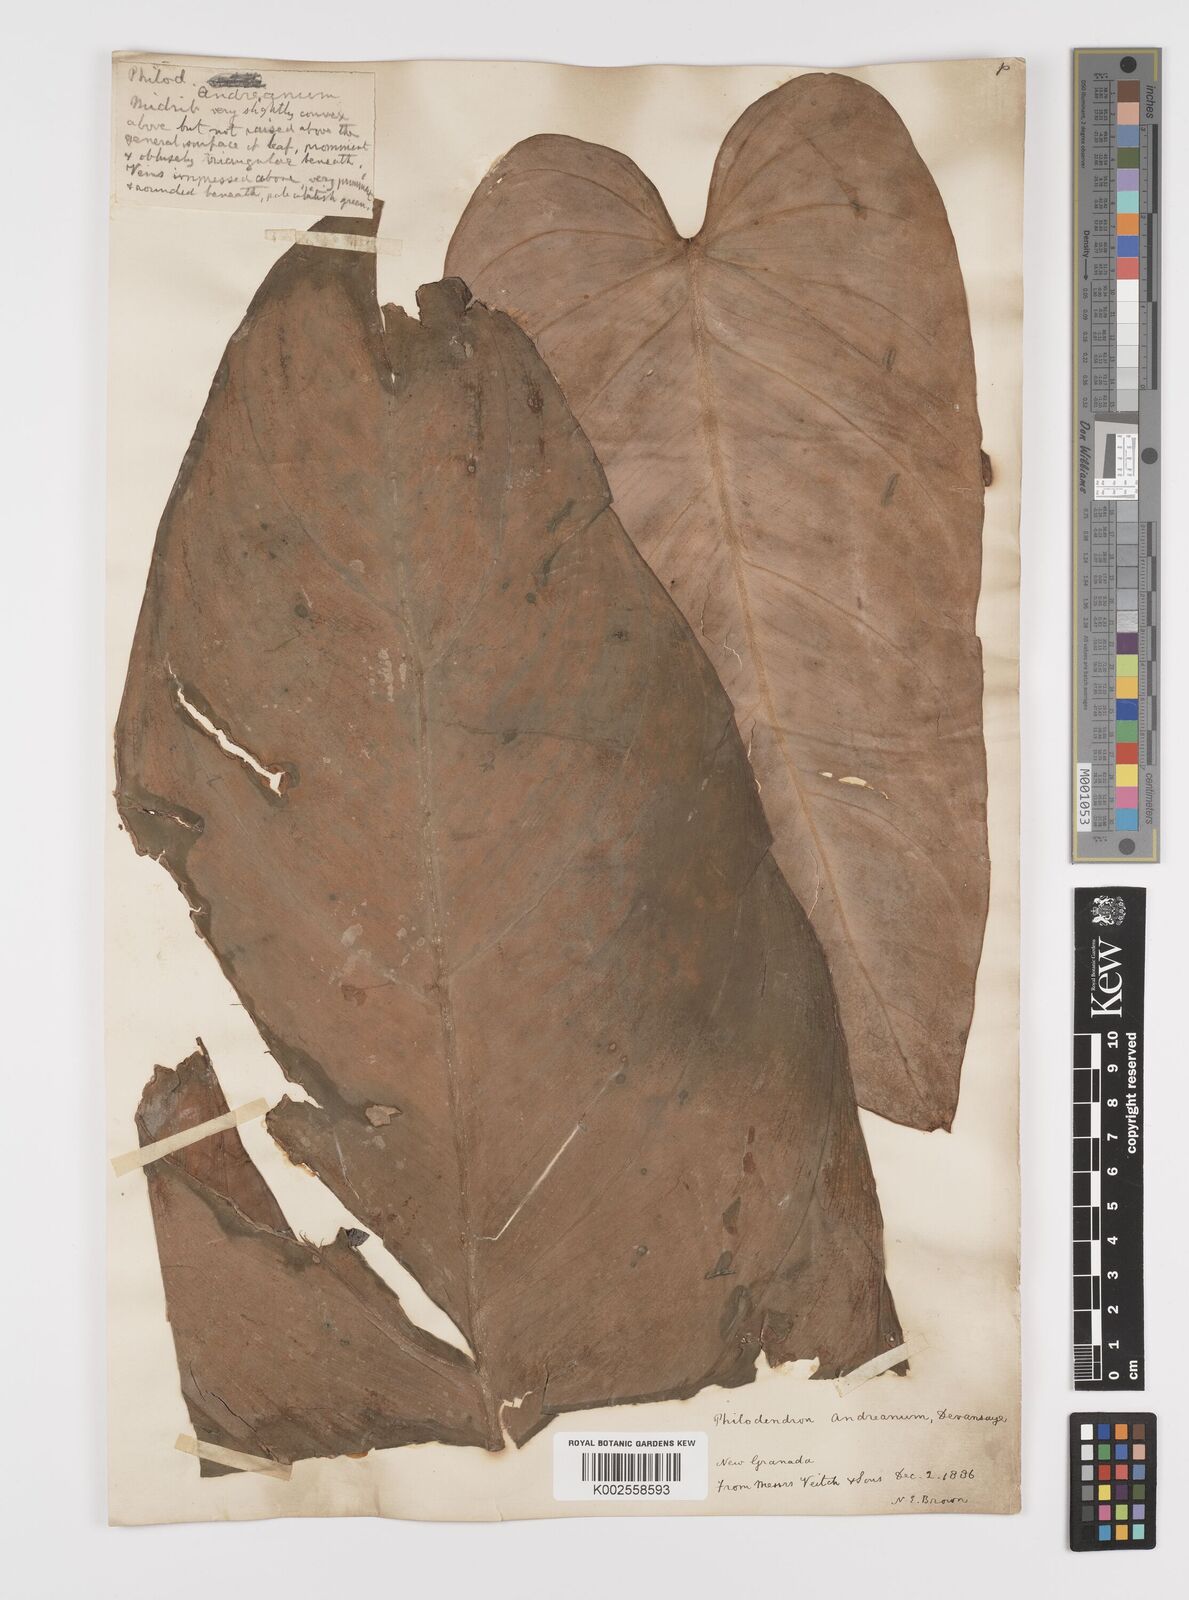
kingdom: Plantae
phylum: Tracheophyta
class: Liliopsida
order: Alismatales
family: Araceae
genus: Philodendron
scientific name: Philodendron melanochrysum
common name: Black-gold philodendron
